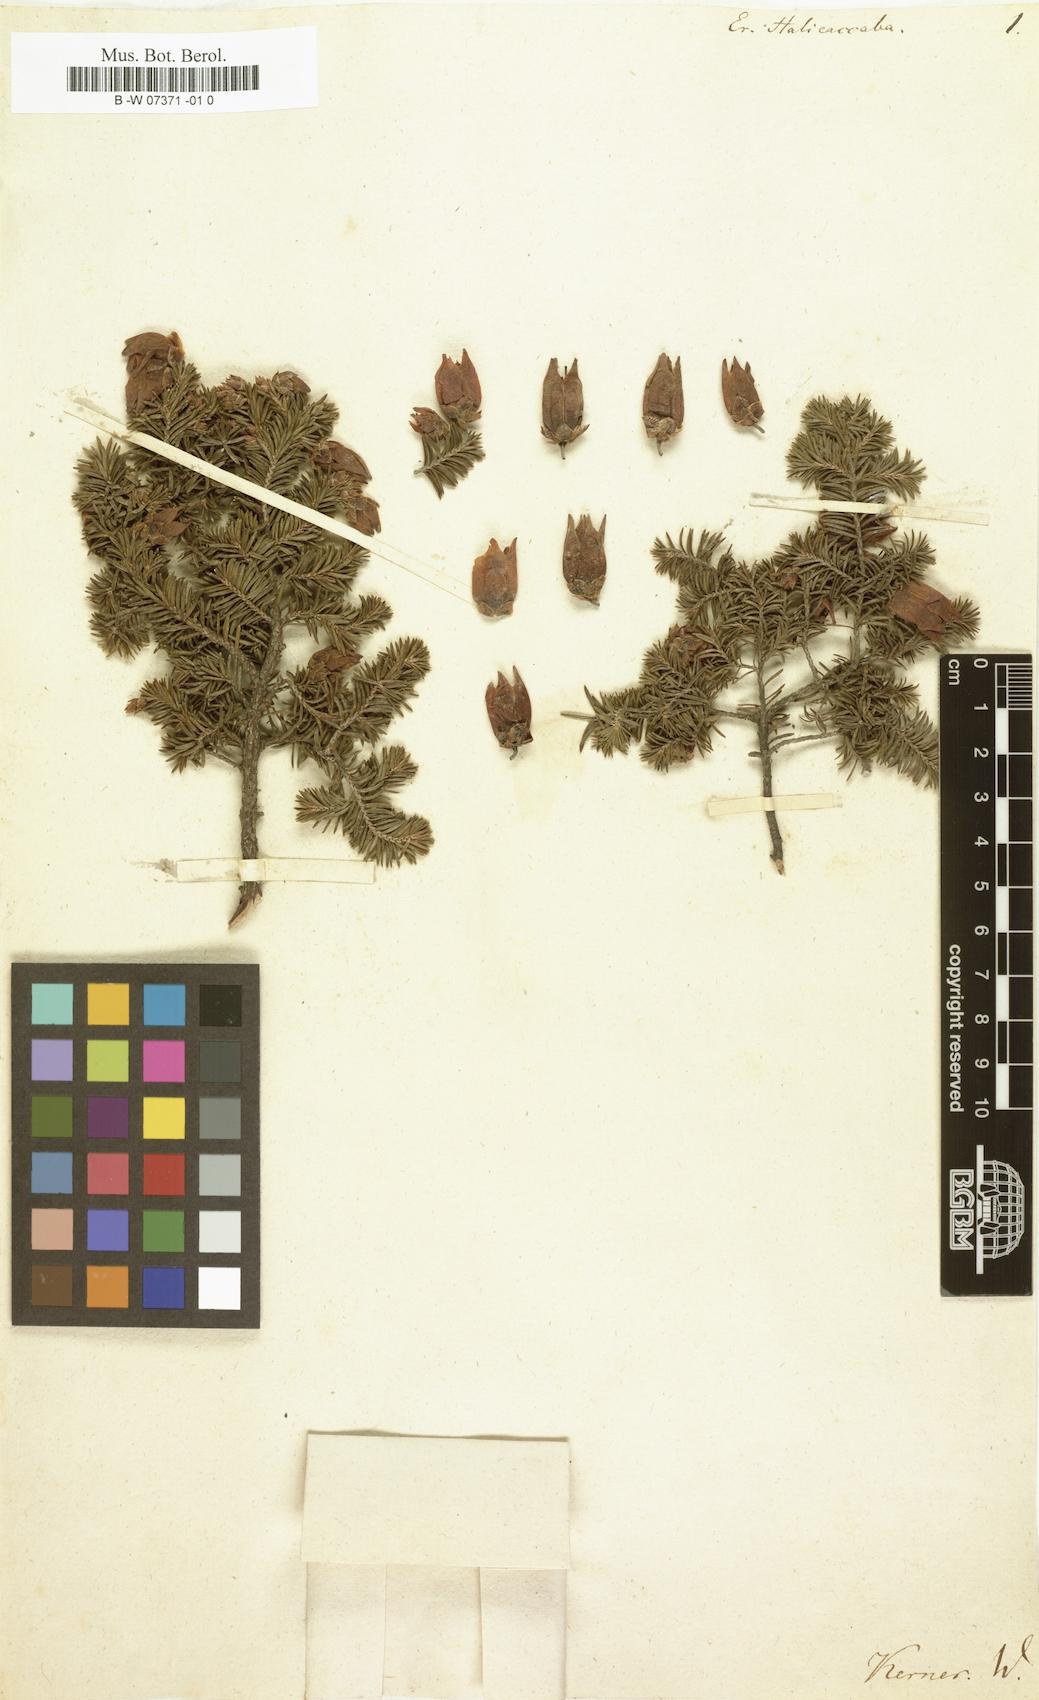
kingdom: Plantae
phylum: Tracheophyta
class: Magnoliopsida
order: Ericales
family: Ericaceae
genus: Erica
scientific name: Erica halicacaba
